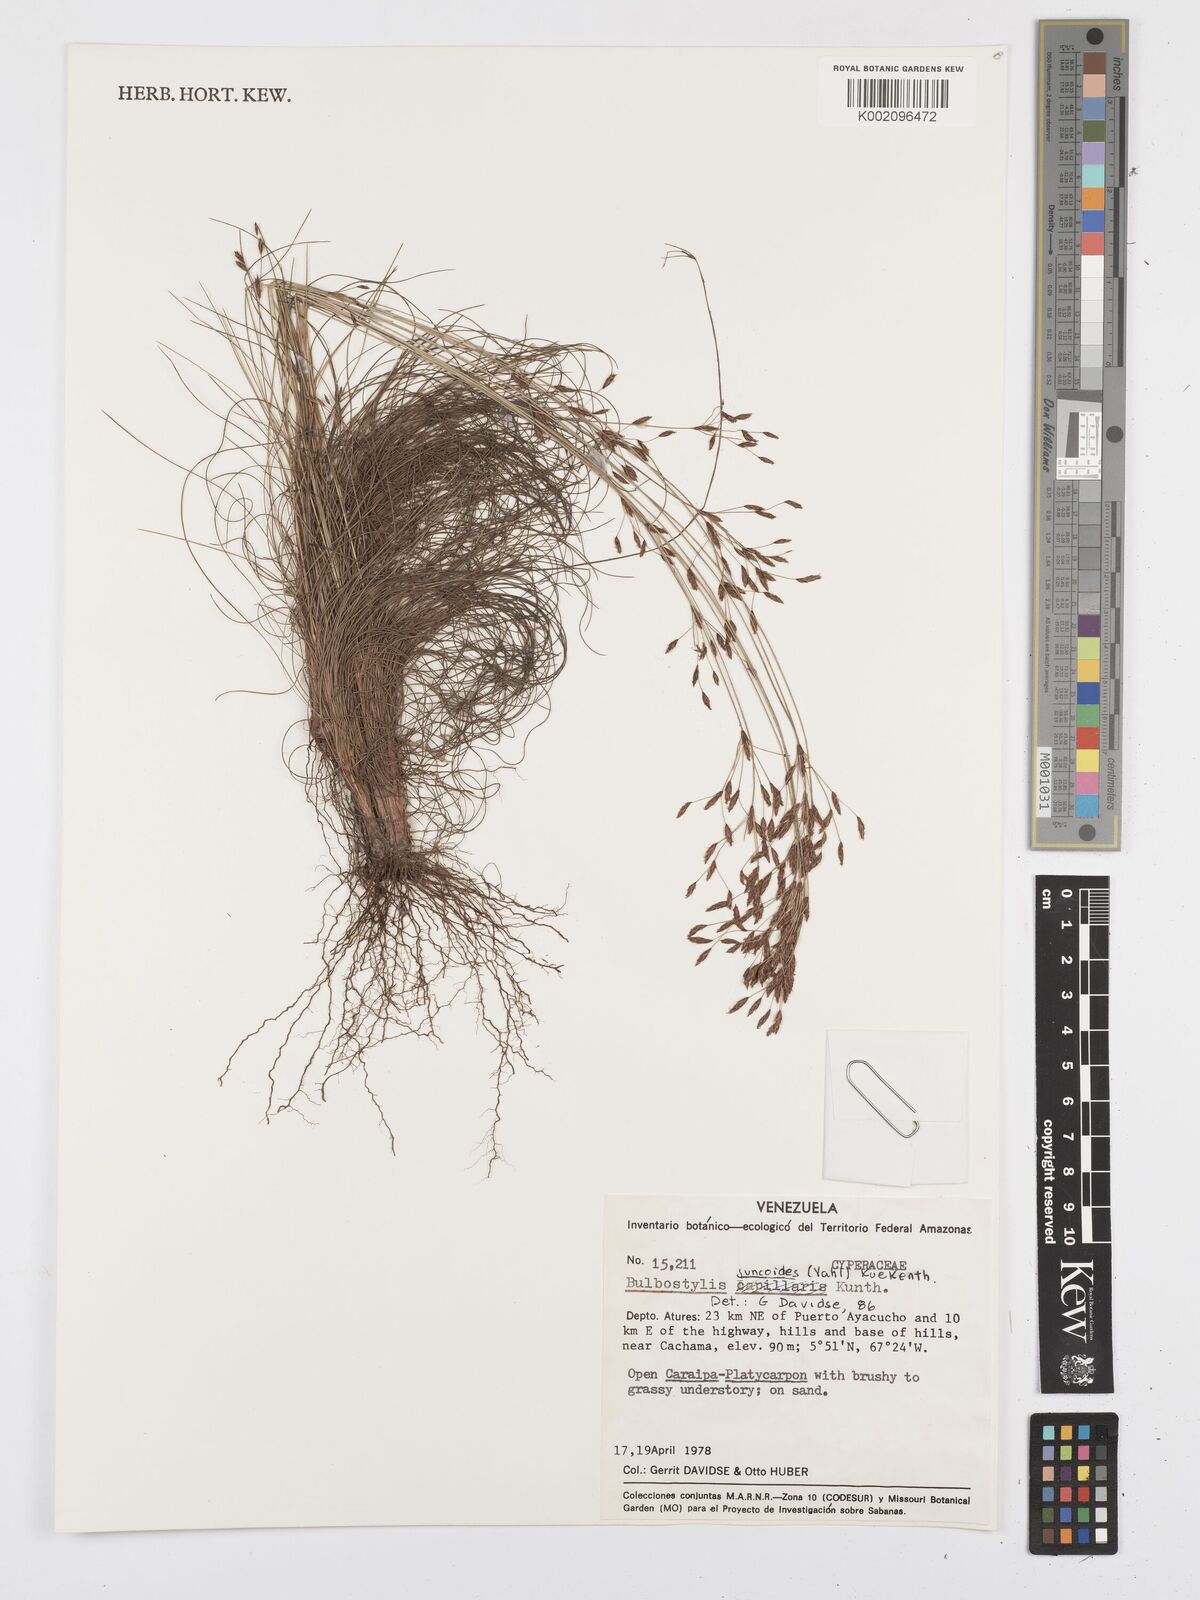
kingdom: Plantae
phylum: Tracheophyta
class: Liliopsida
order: Poales
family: Cyperaceae
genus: Bulbostylis
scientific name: Bulbostylis juncoides
